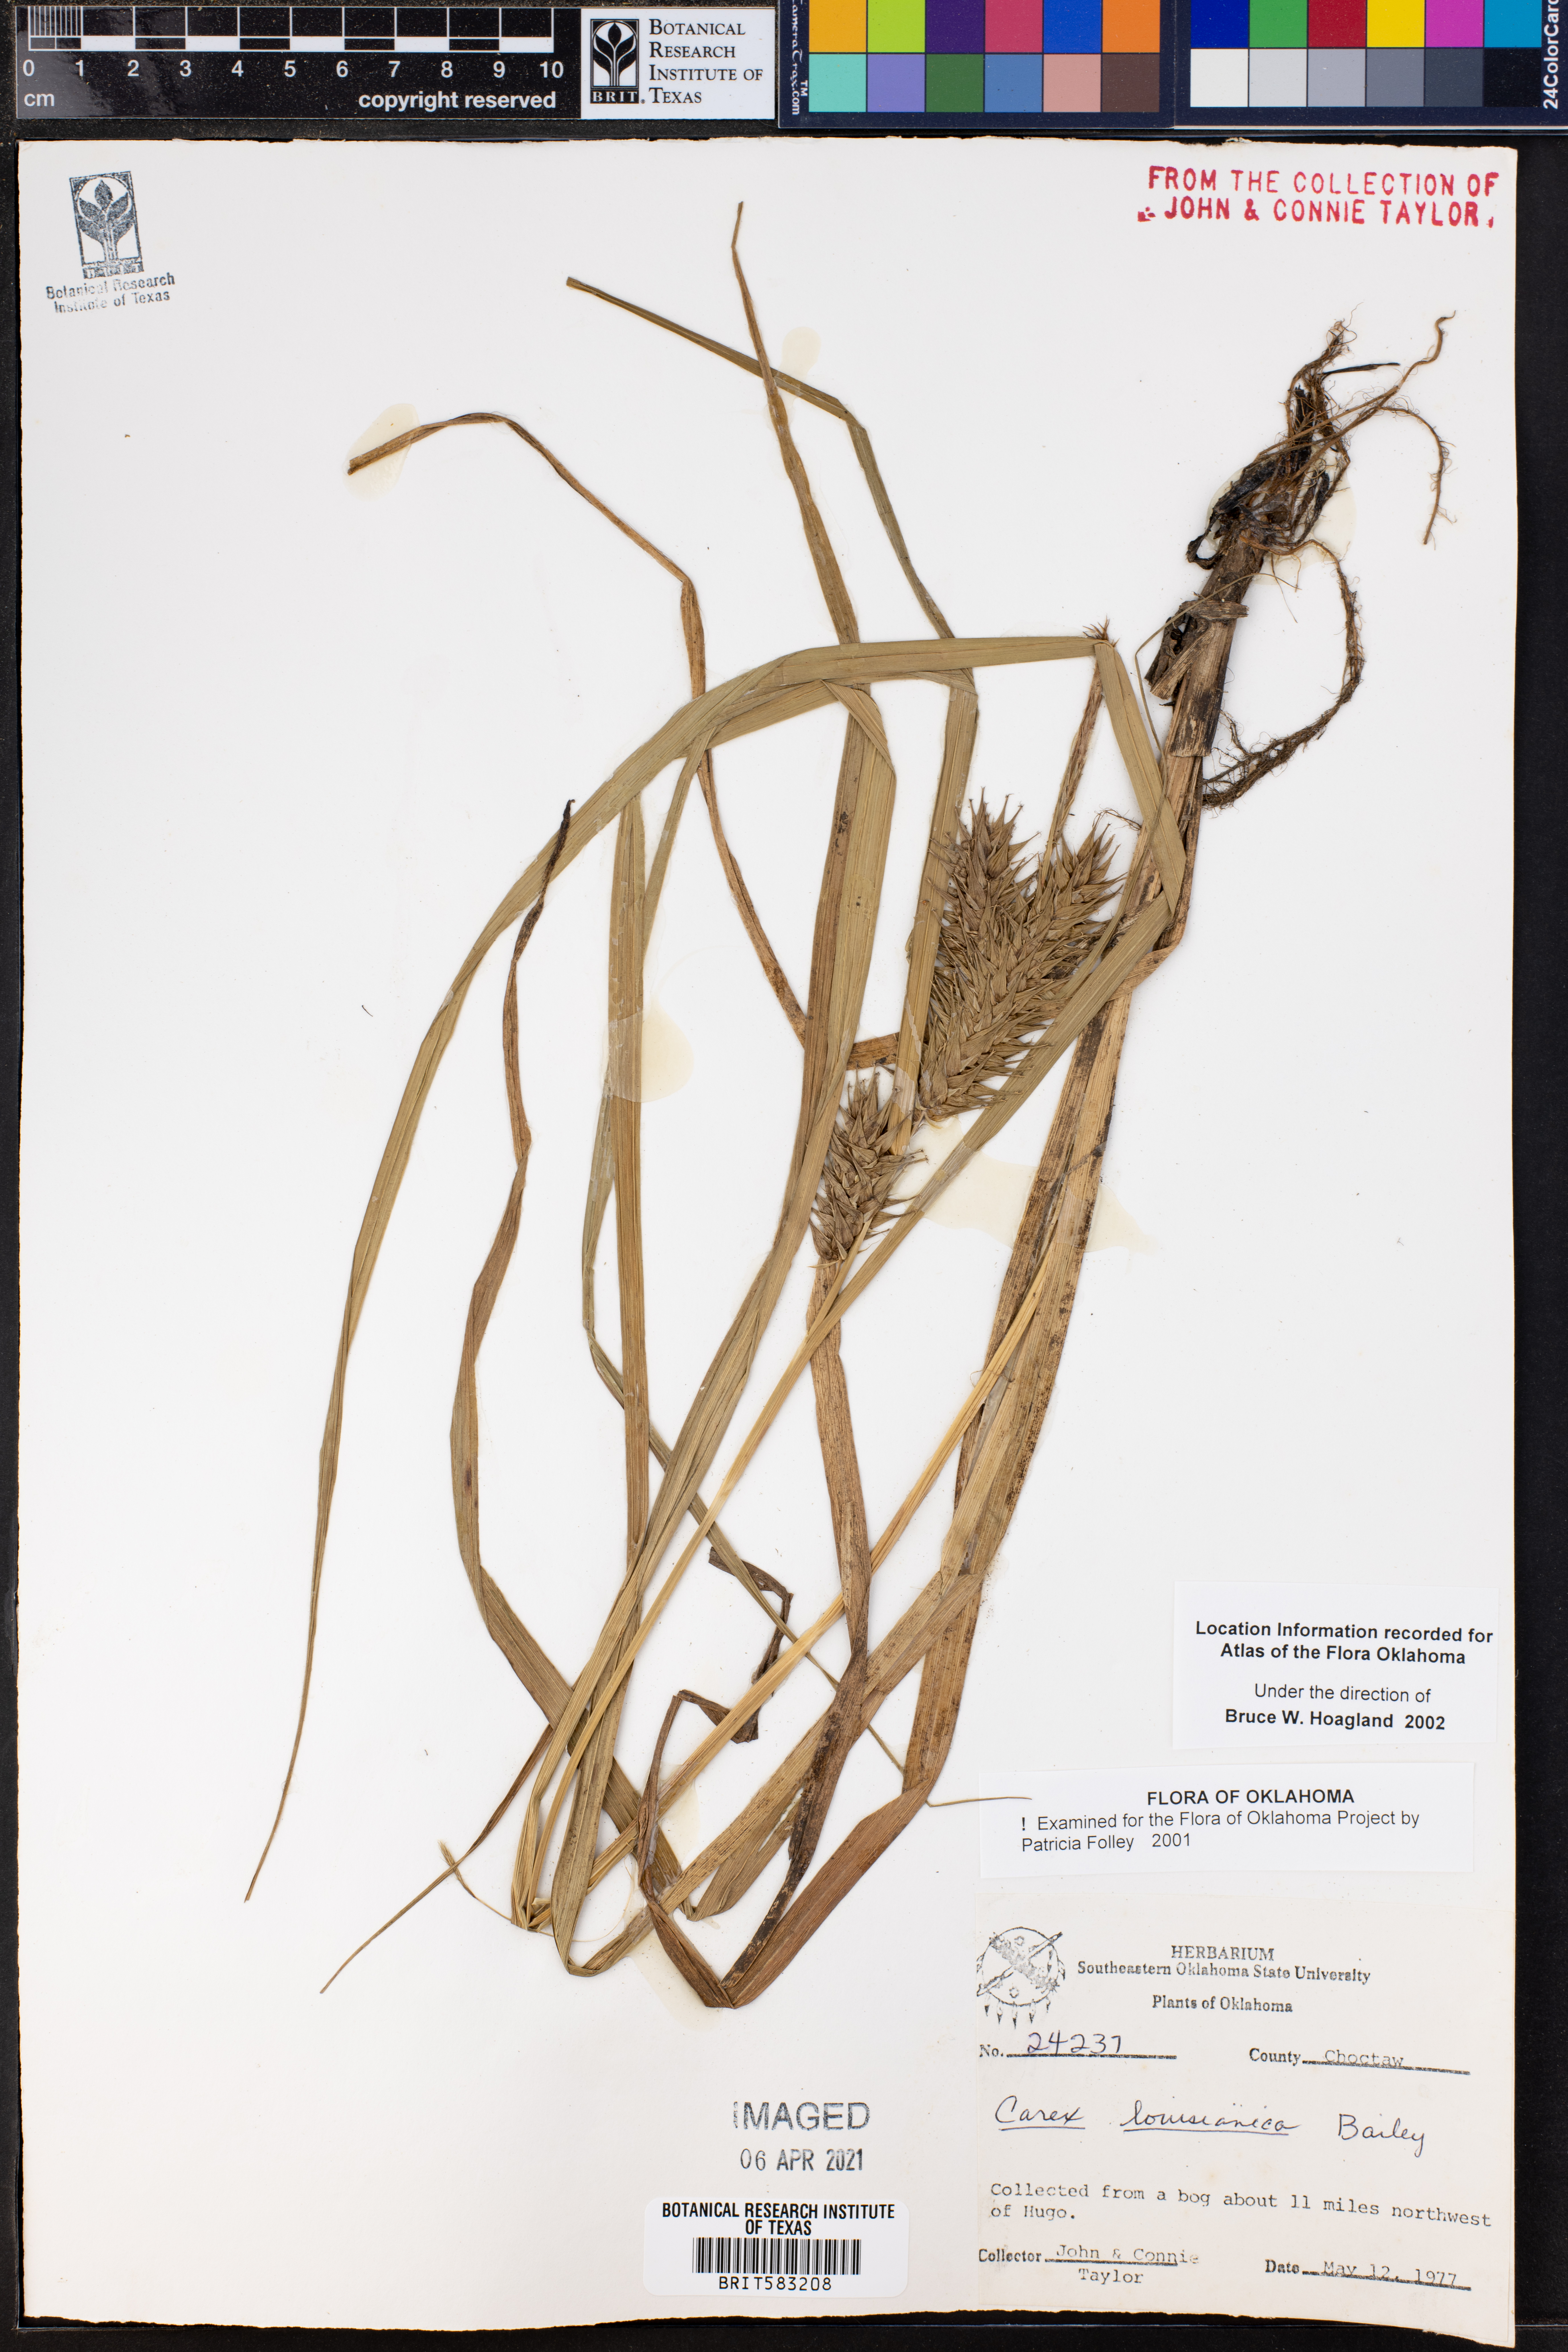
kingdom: Plantae
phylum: Tracheophyta
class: Liliopsida
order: Poales
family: Cyperaceae
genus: Carex
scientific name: Carex louisianica
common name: Louisiana sedge
